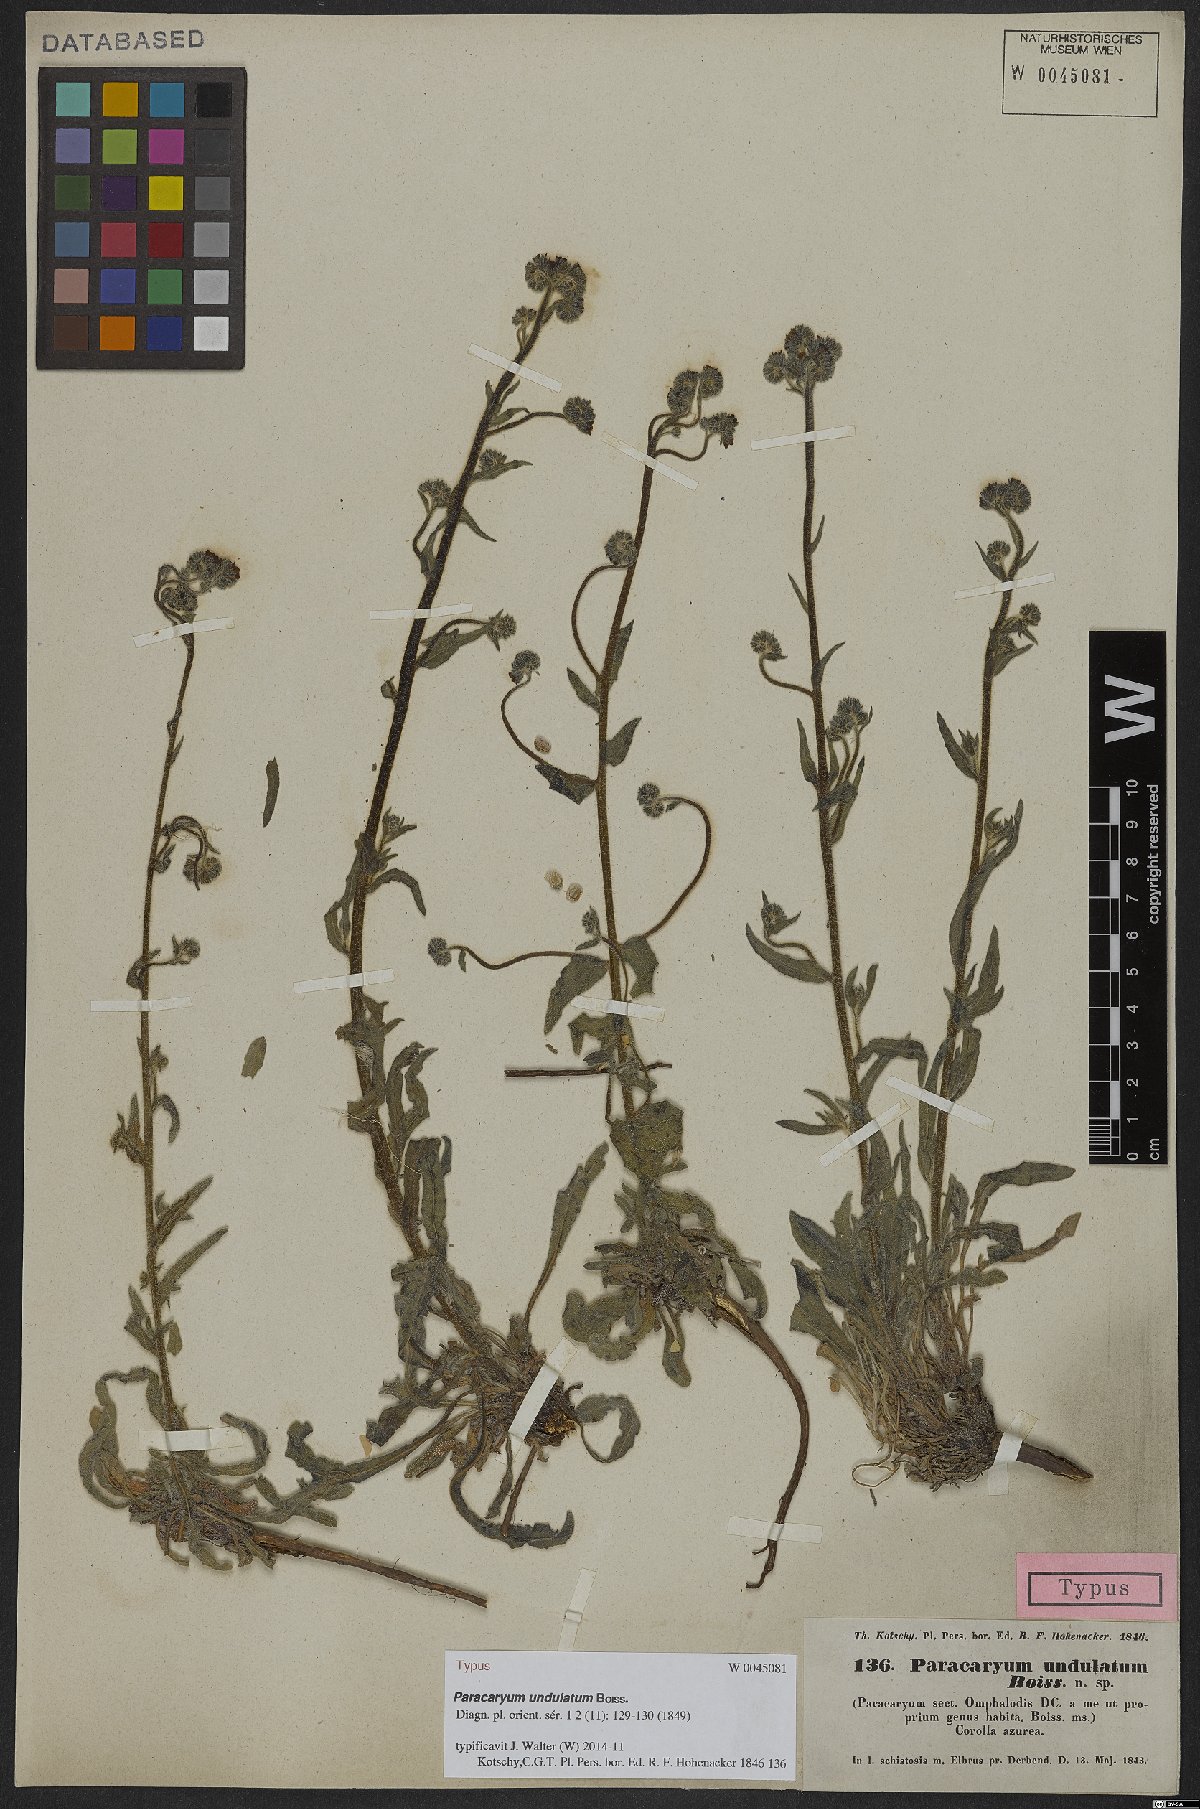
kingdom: Plantae
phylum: Tracheophyta
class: Magnoliopsida
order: Boraginales
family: Boraginaceae
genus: Paracaryum
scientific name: Paracaryum strictum
